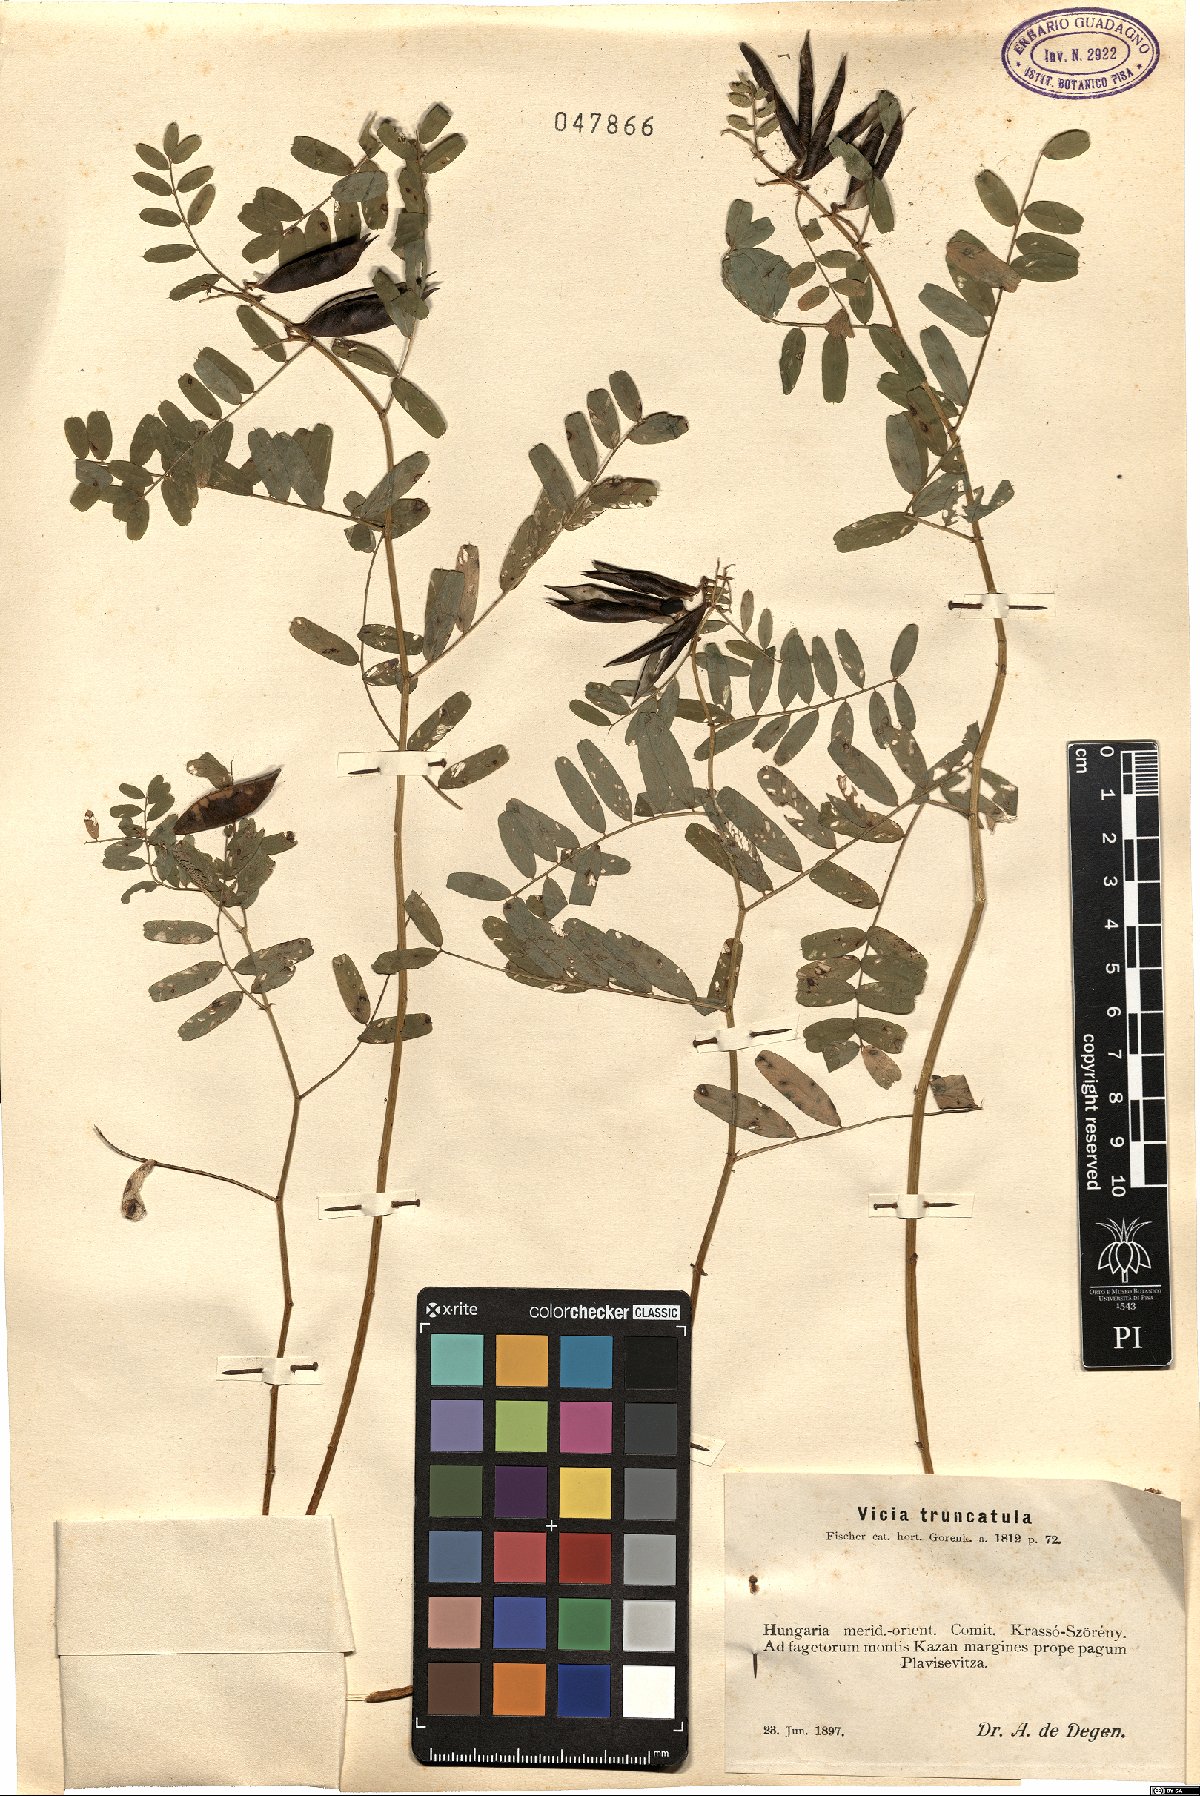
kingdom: Plantae
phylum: Tracheophyta
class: Magnoliopsida
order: Fabales
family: Fabaceae
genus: Vicia
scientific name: Vicia abbreviata
